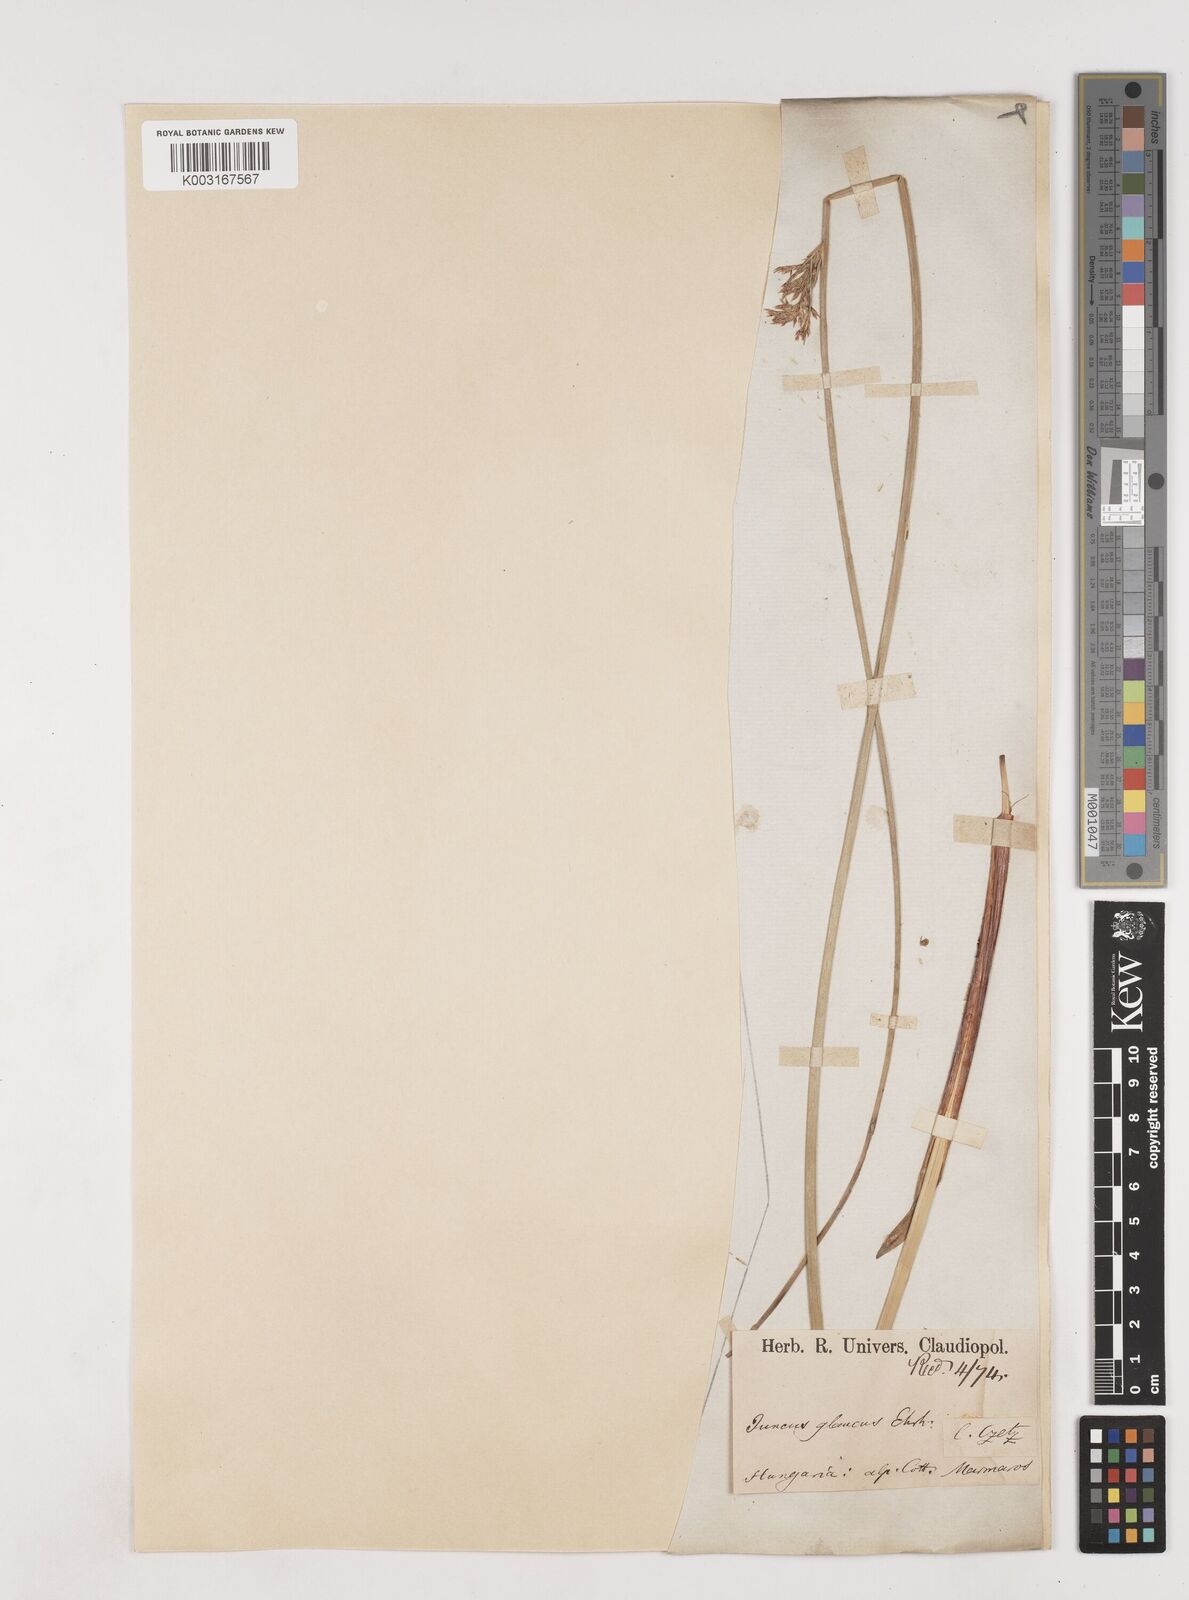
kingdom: Plantae
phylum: Tracheophyta
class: Liliopsida
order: Poales
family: Juncaceae
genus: Juncus
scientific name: Juncus inflexus
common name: Hard rush
